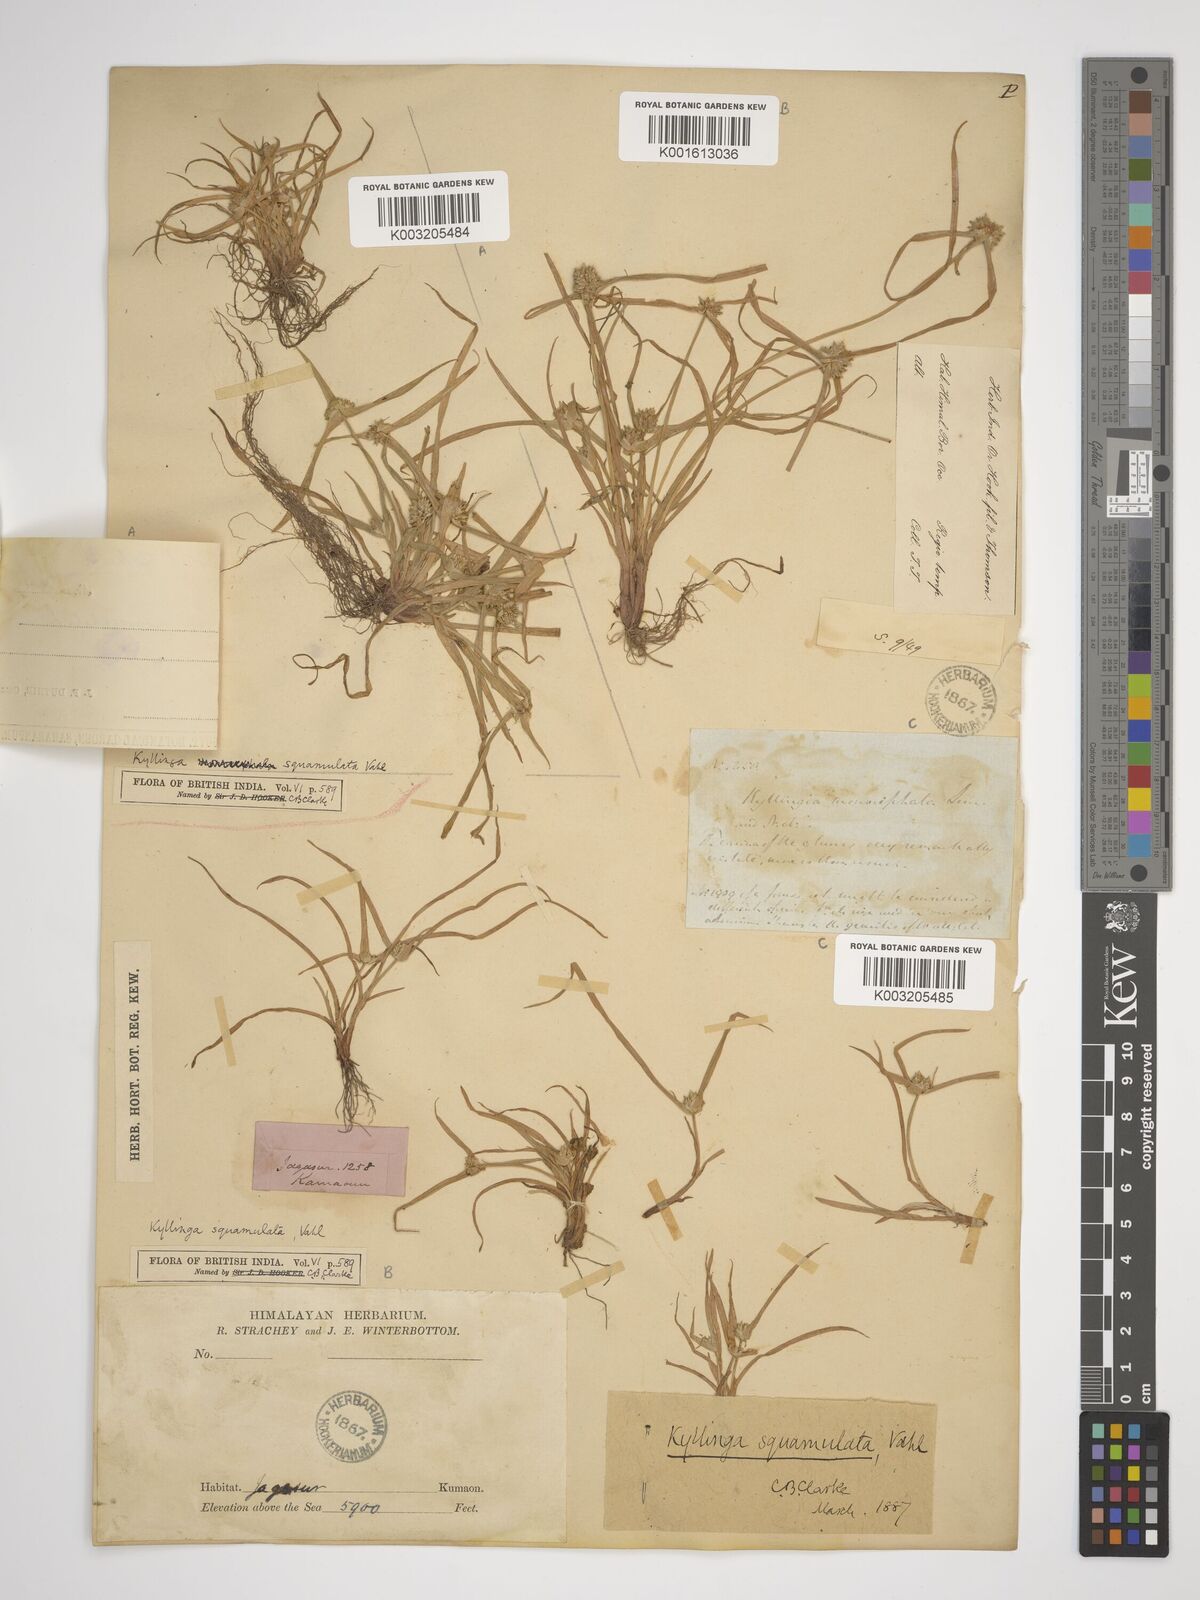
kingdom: Plantae
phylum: Tracheophyta
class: Liliopsida
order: Poales
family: Cyperaceae
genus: Cyperus
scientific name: Cyperus metzii
